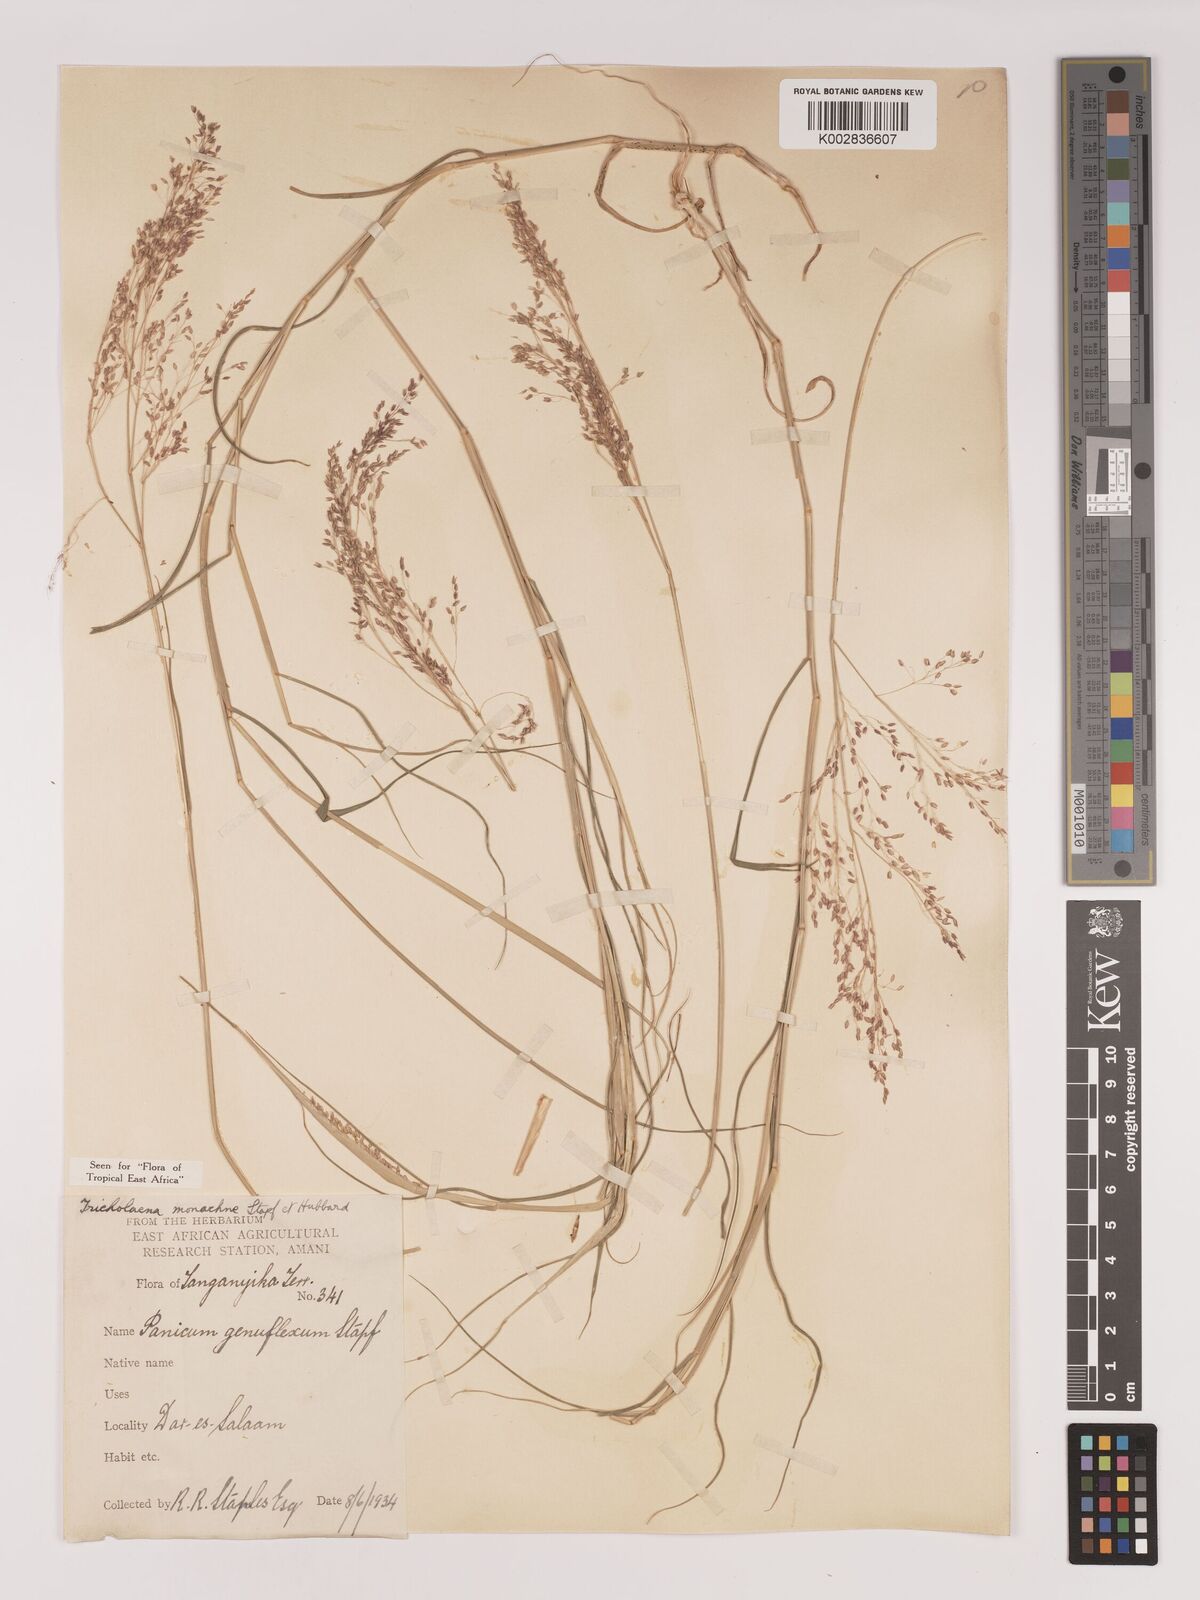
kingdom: Plantae
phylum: Tracheophyta
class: Liliopsida
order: Poales
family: Poaceae
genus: Tricholaena
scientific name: Tricholaena monachne
